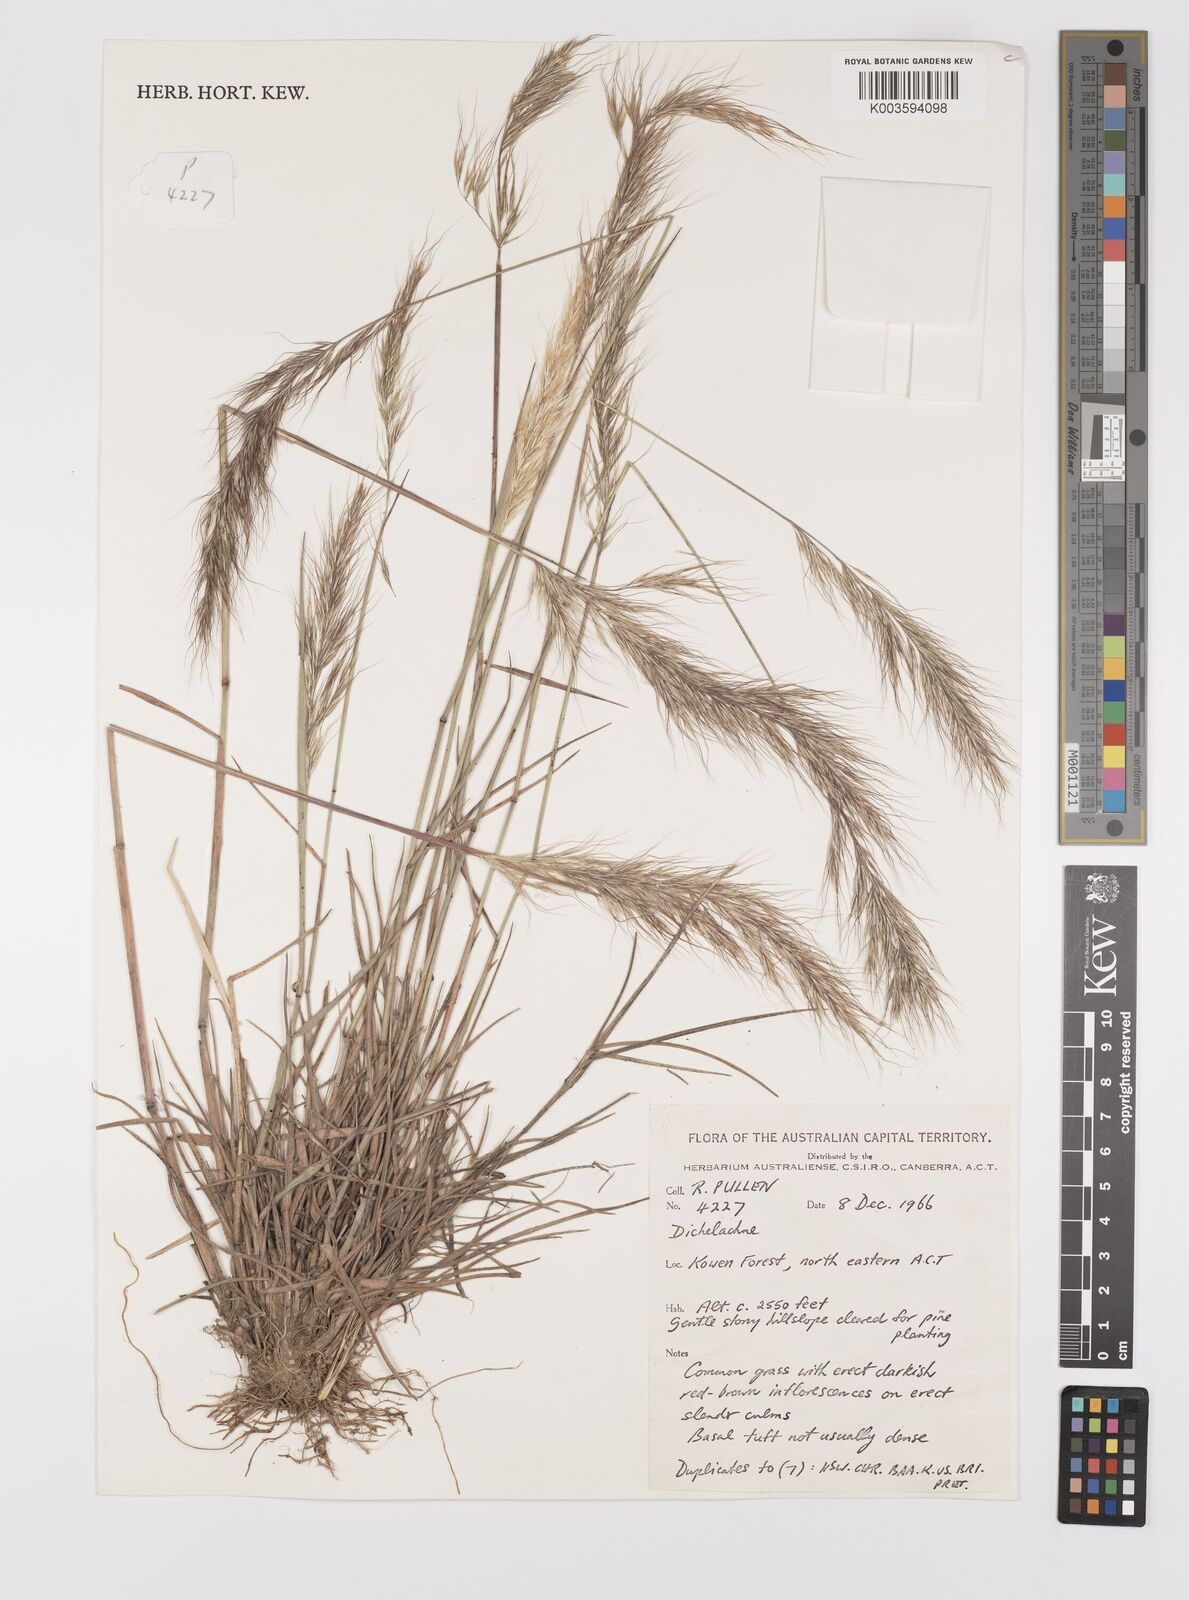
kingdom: Plantae
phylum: Tracheophyta
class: Liliopsida
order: Poales
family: Poaceae
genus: Dichelachne
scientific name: Dichelachne
